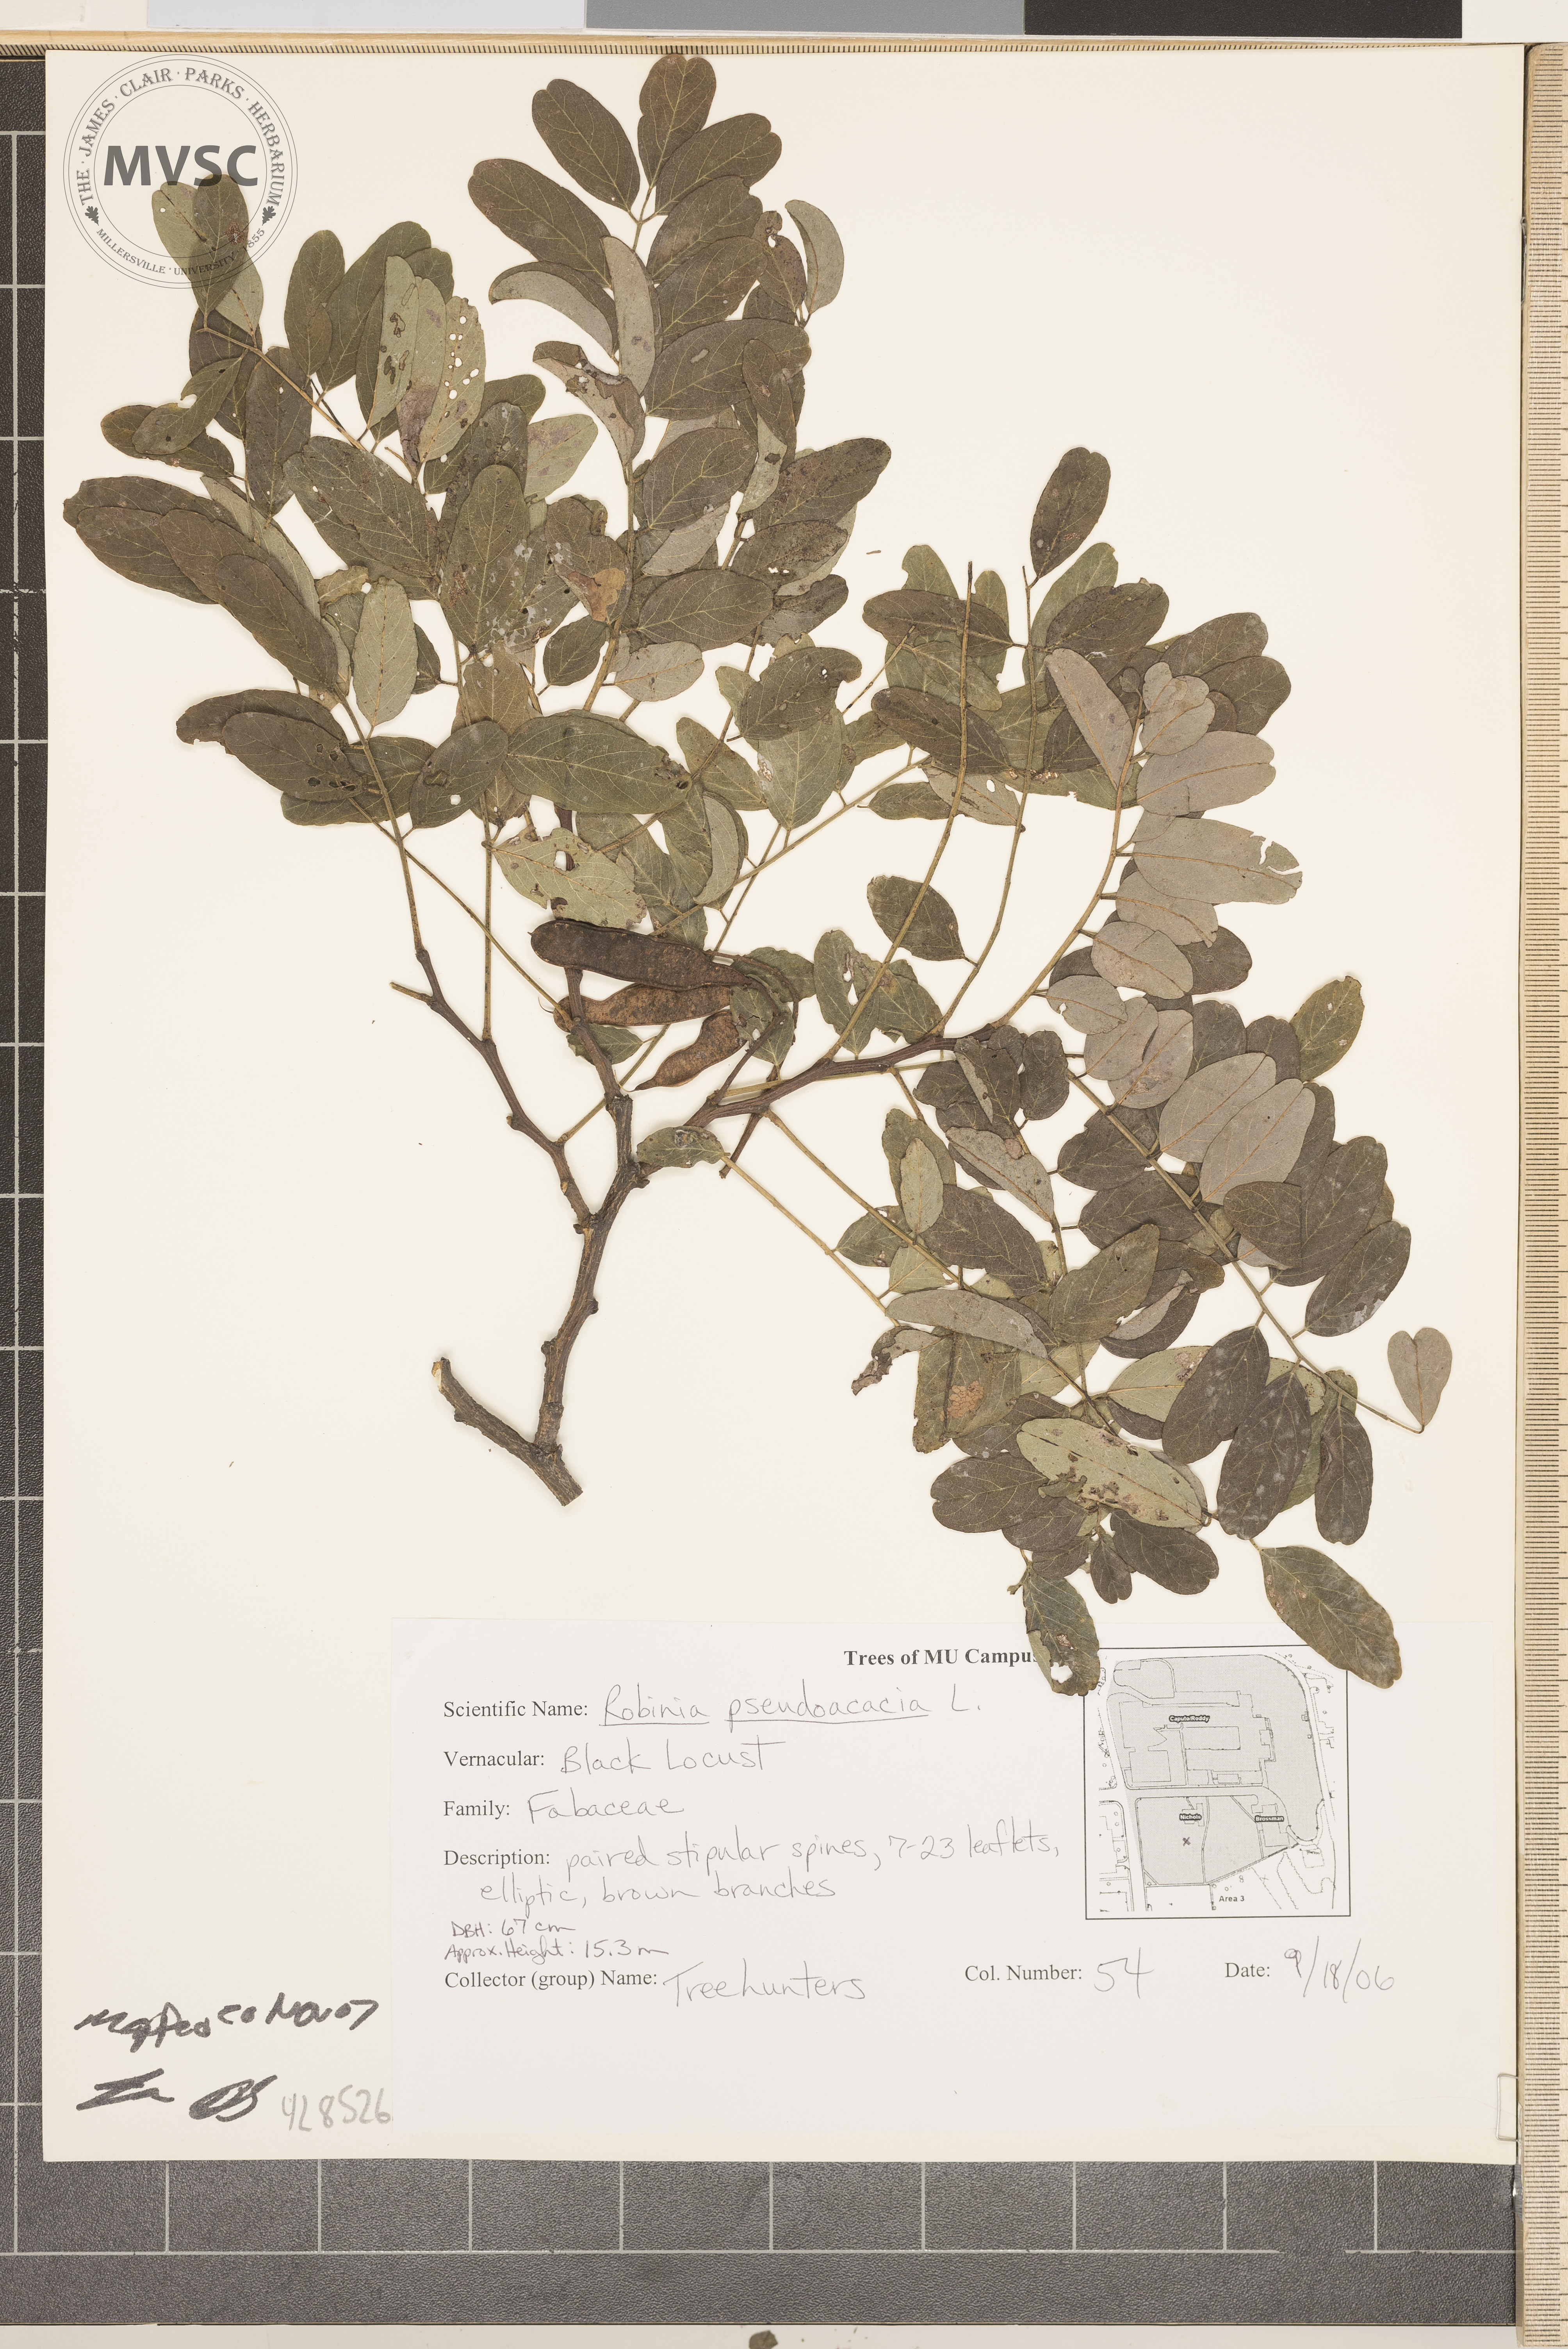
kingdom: Plantae
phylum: Tracheophyta
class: Magnoliopsida
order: Fabales
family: Fabaceae
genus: Robinia
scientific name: Robinia pseudoacacia
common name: Black Locust
